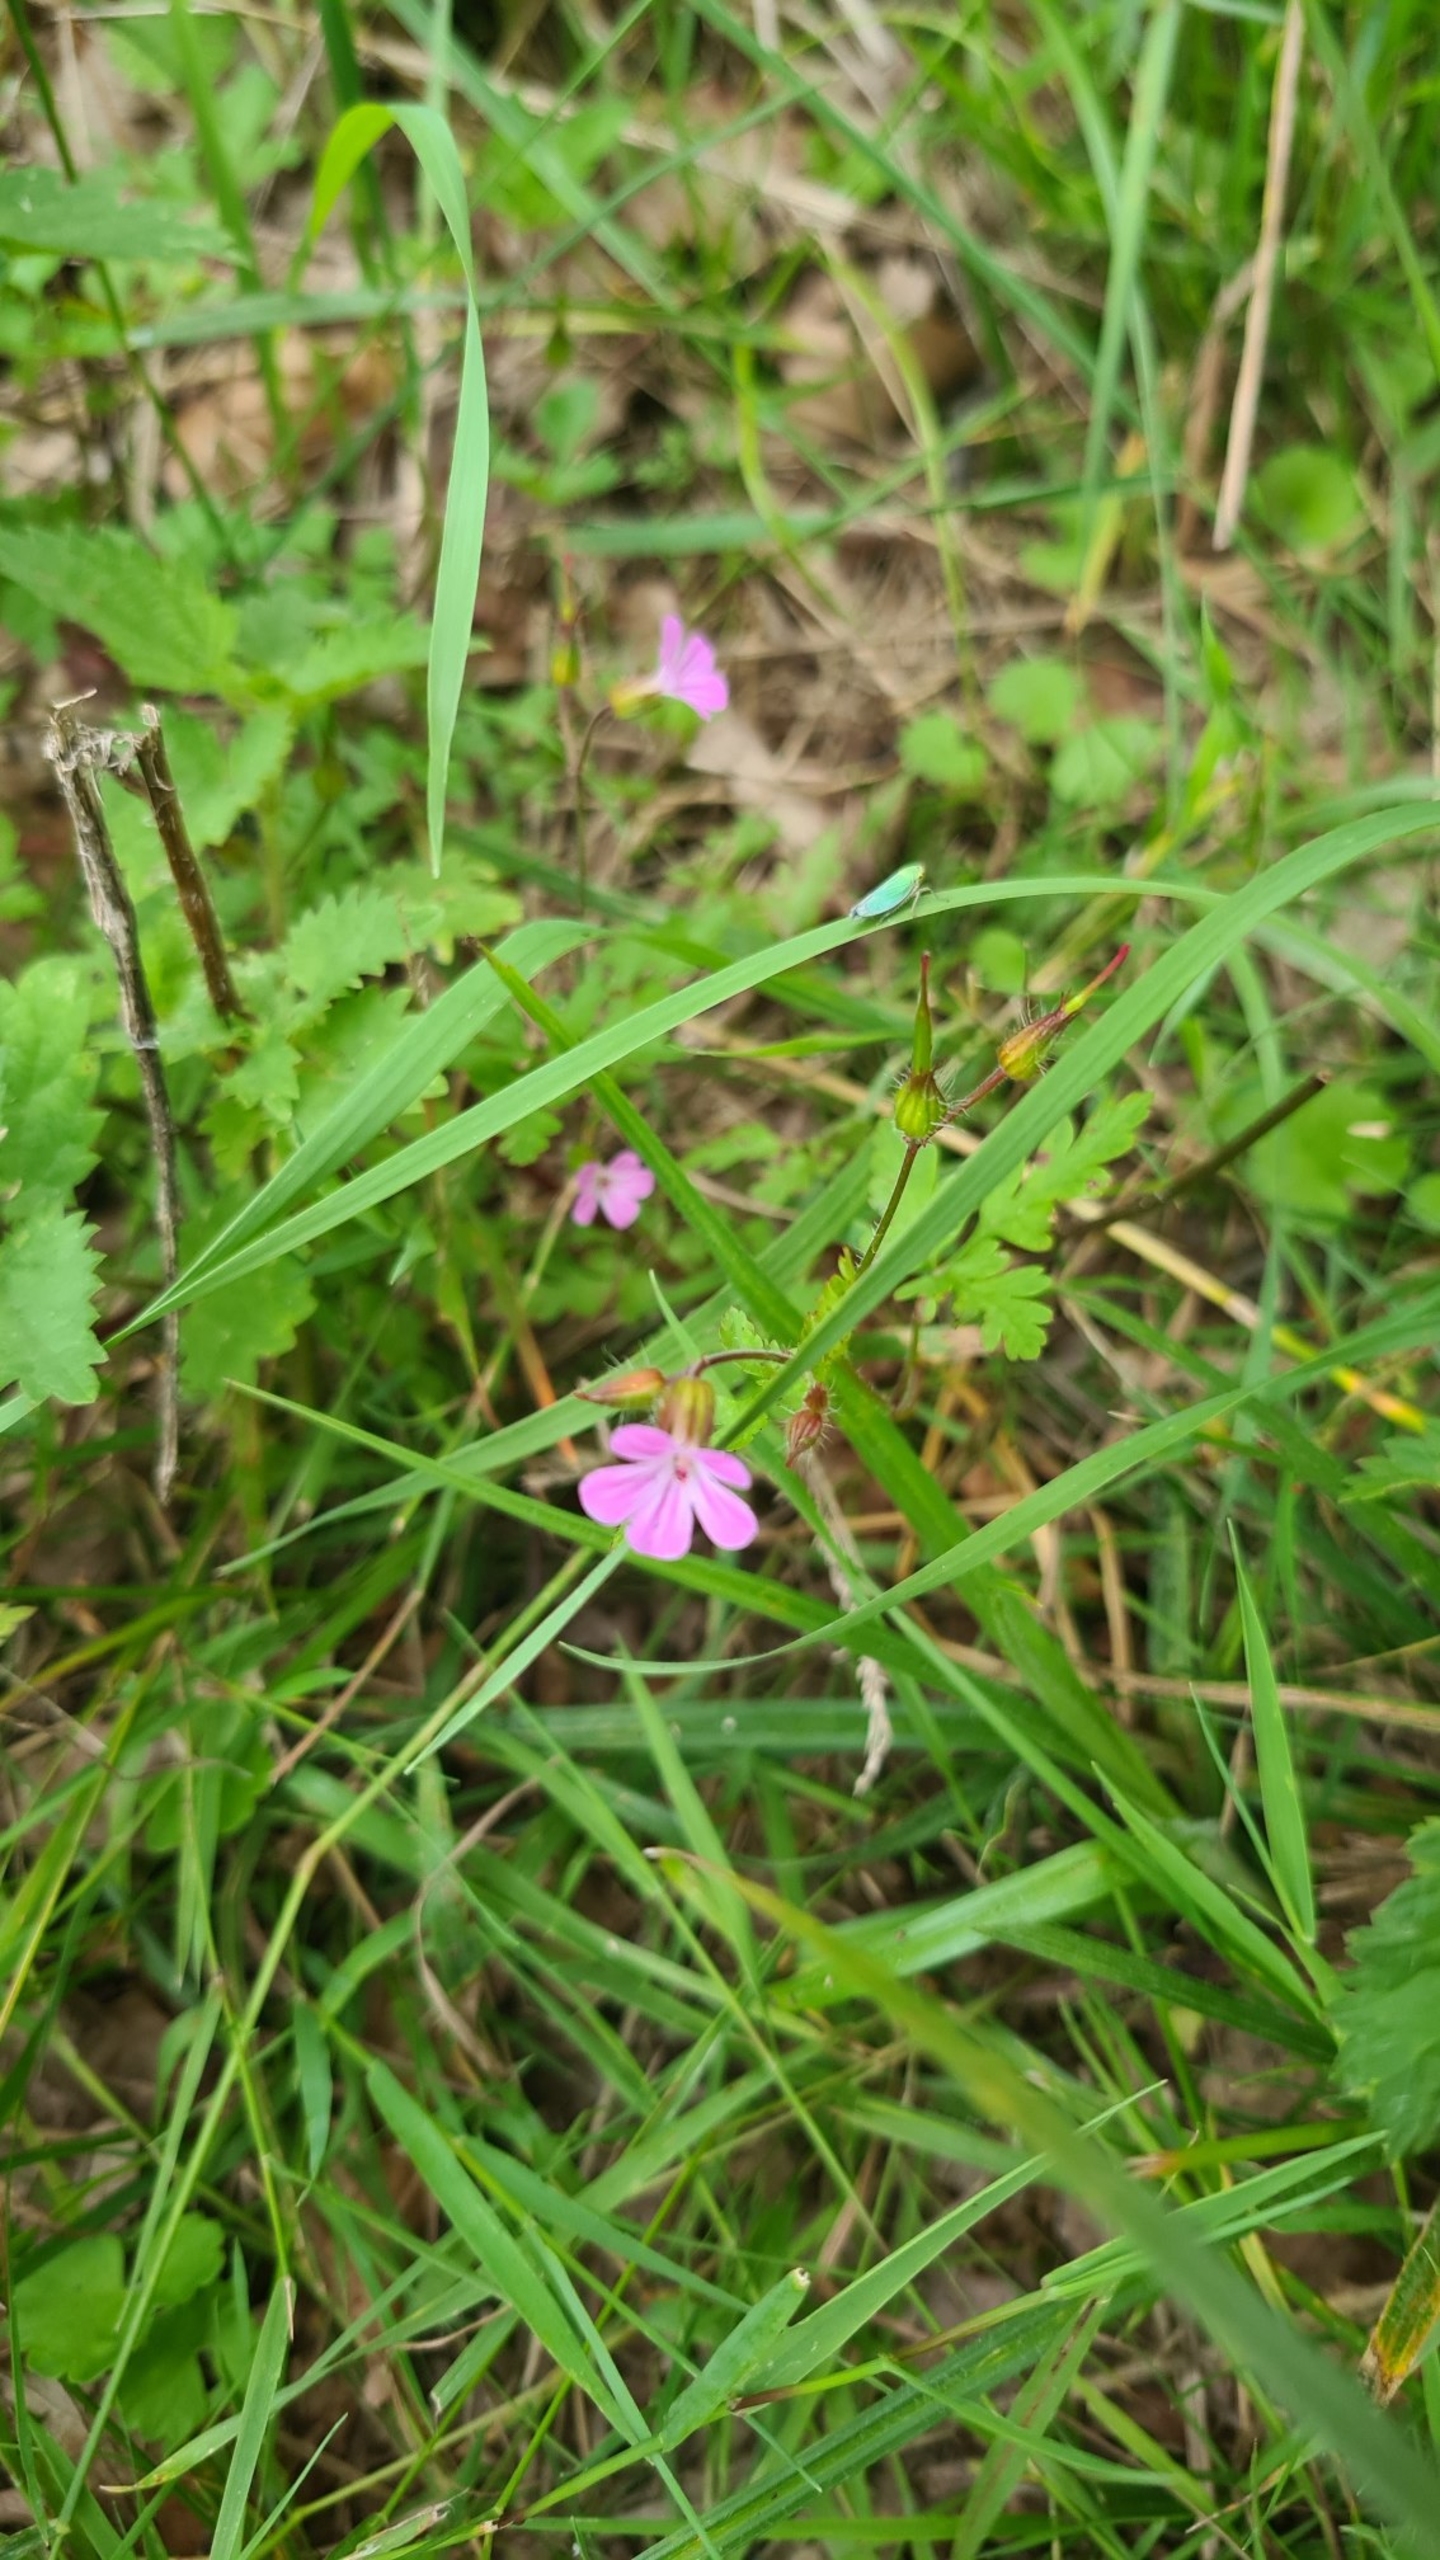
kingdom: Plantae
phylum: Tracheophyta
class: Magnoliopsida
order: Geraniales
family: Geraniaceae
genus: Geranium
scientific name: Geranium robertianum
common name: Stinkende storkenæb
